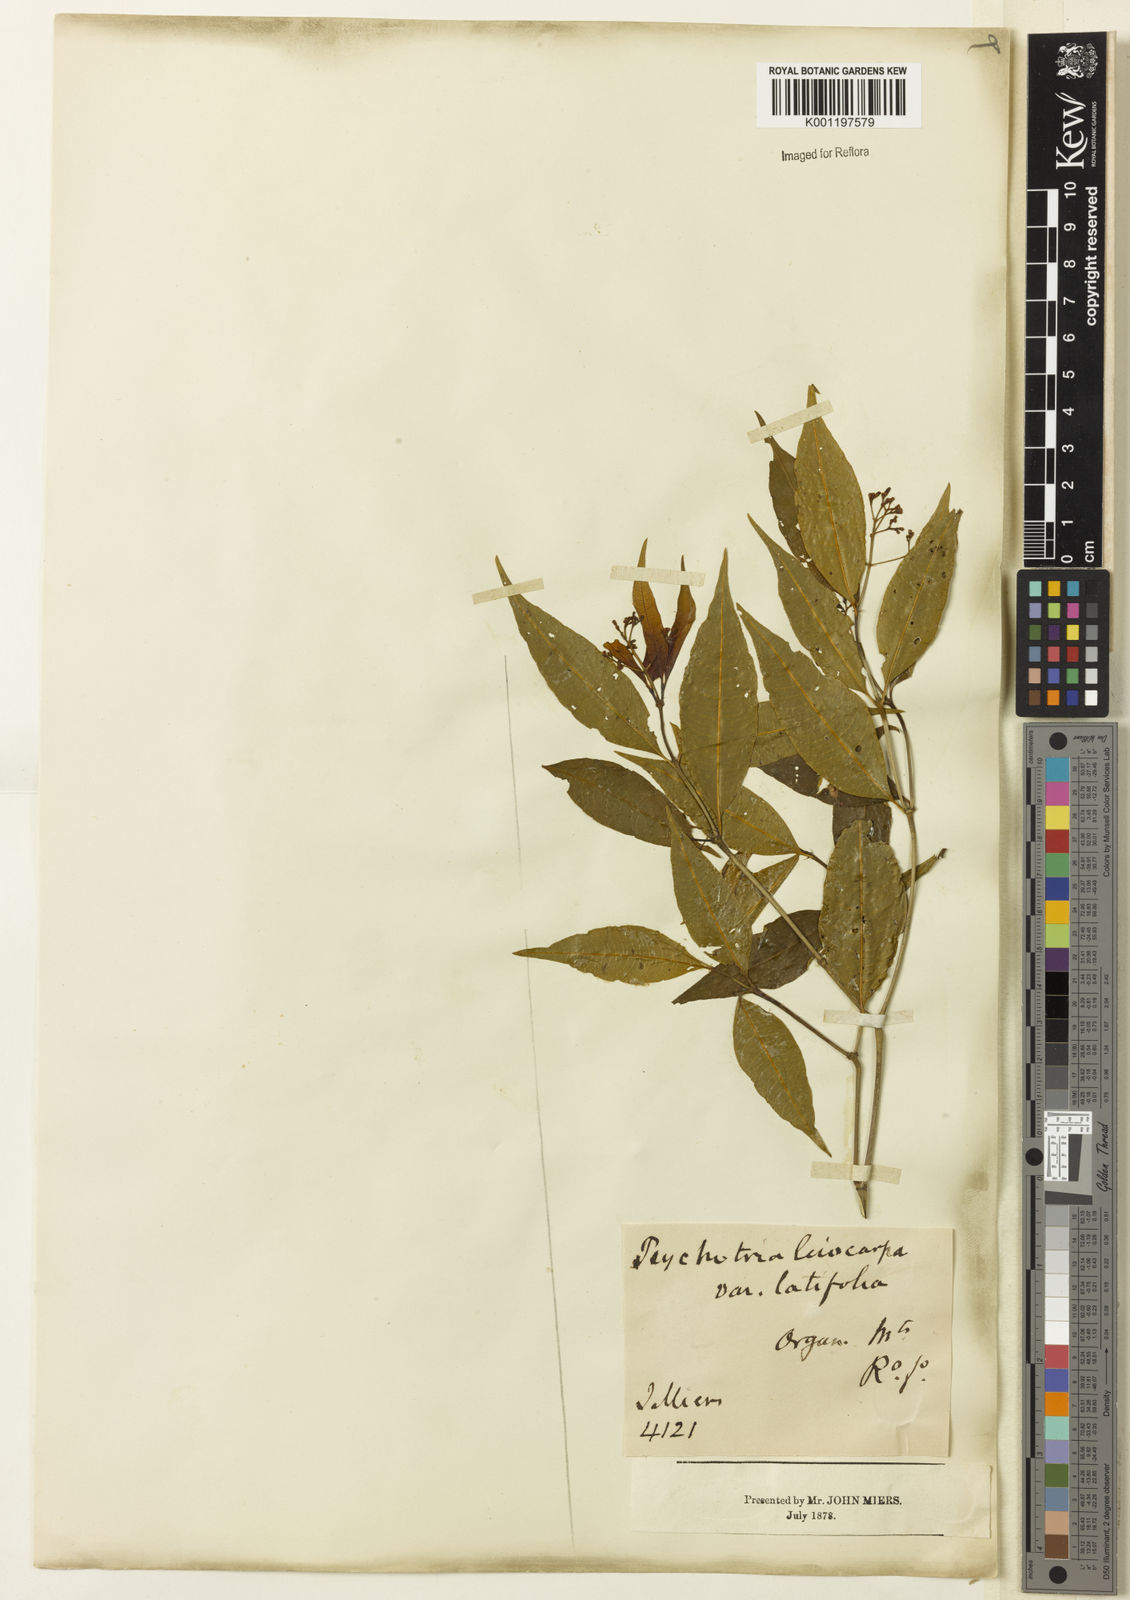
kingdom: Plantae
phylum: Tracheophyta
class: Magnoliopsida
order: Gentianales
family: Rubiaceae
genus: Psychotria
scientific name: Psychotria leiocarpa
